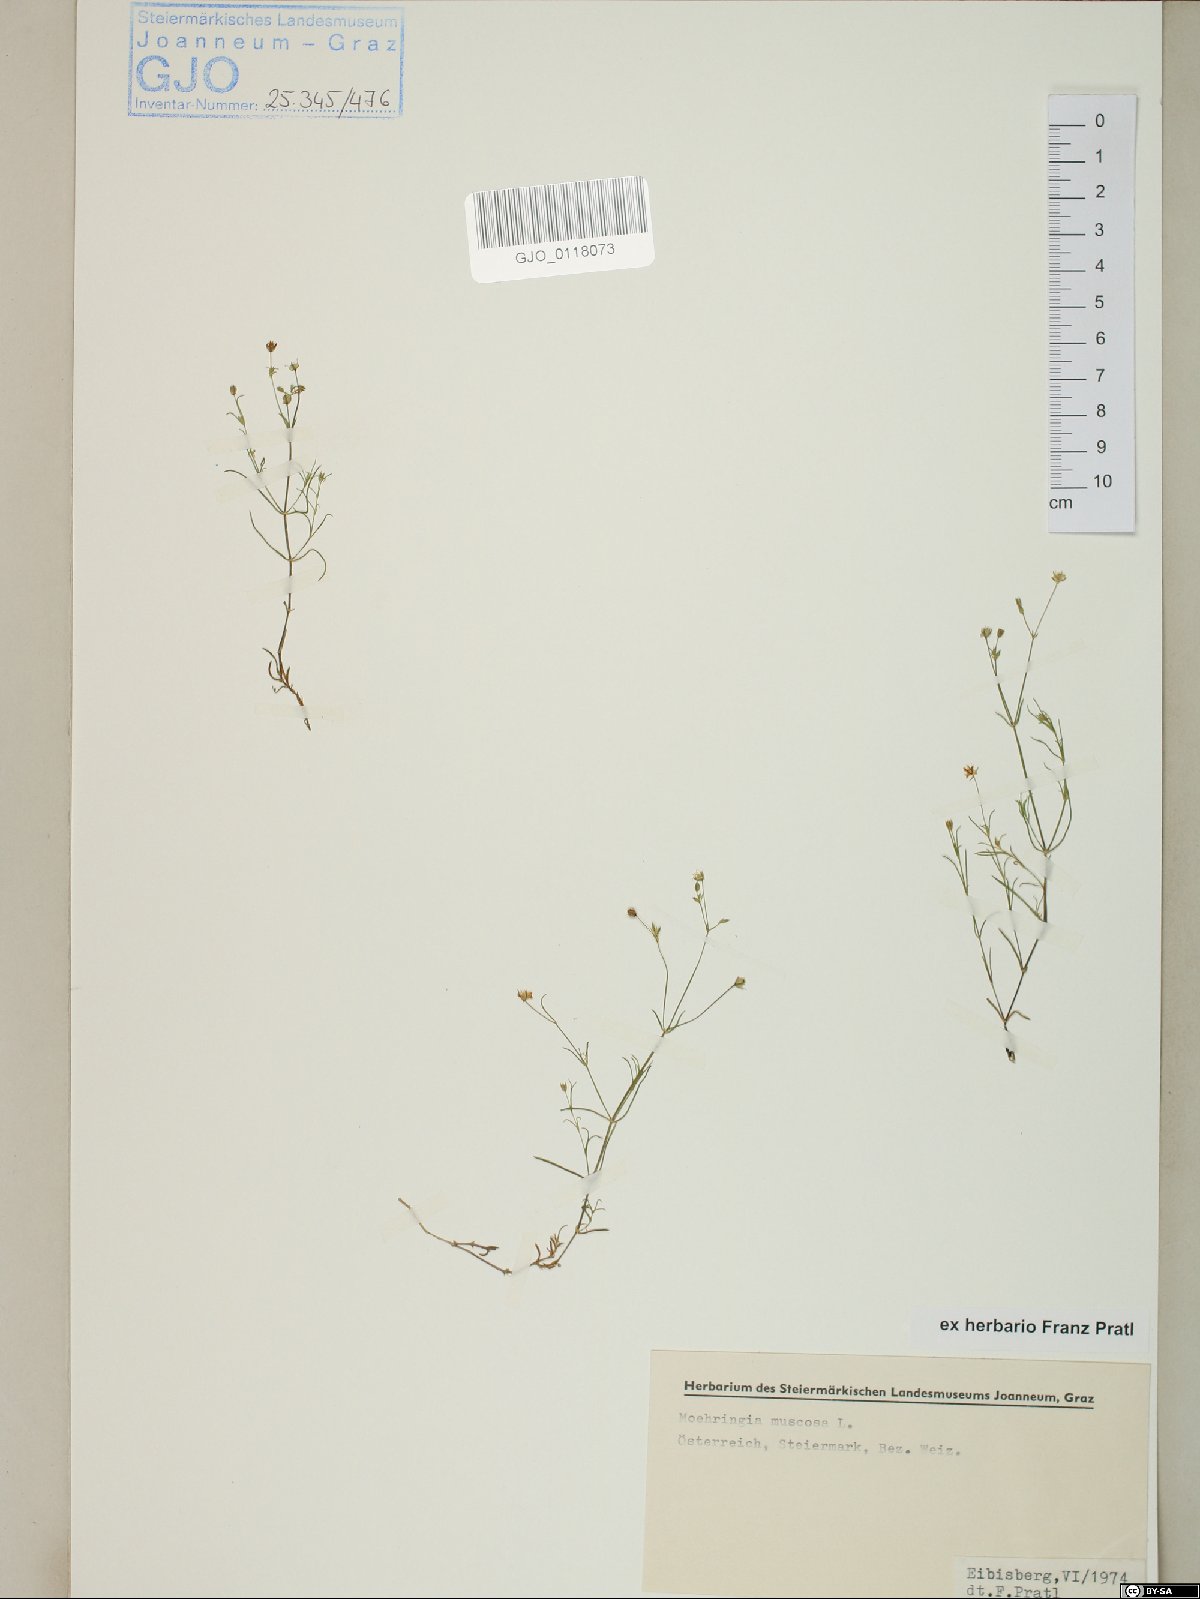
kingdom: Plantae
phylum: Tracheophyta
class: Magnoliopsida
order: Caryophyllales
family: Caryophyllaceae
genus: Moehringia
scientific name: Moehringia muscosa
